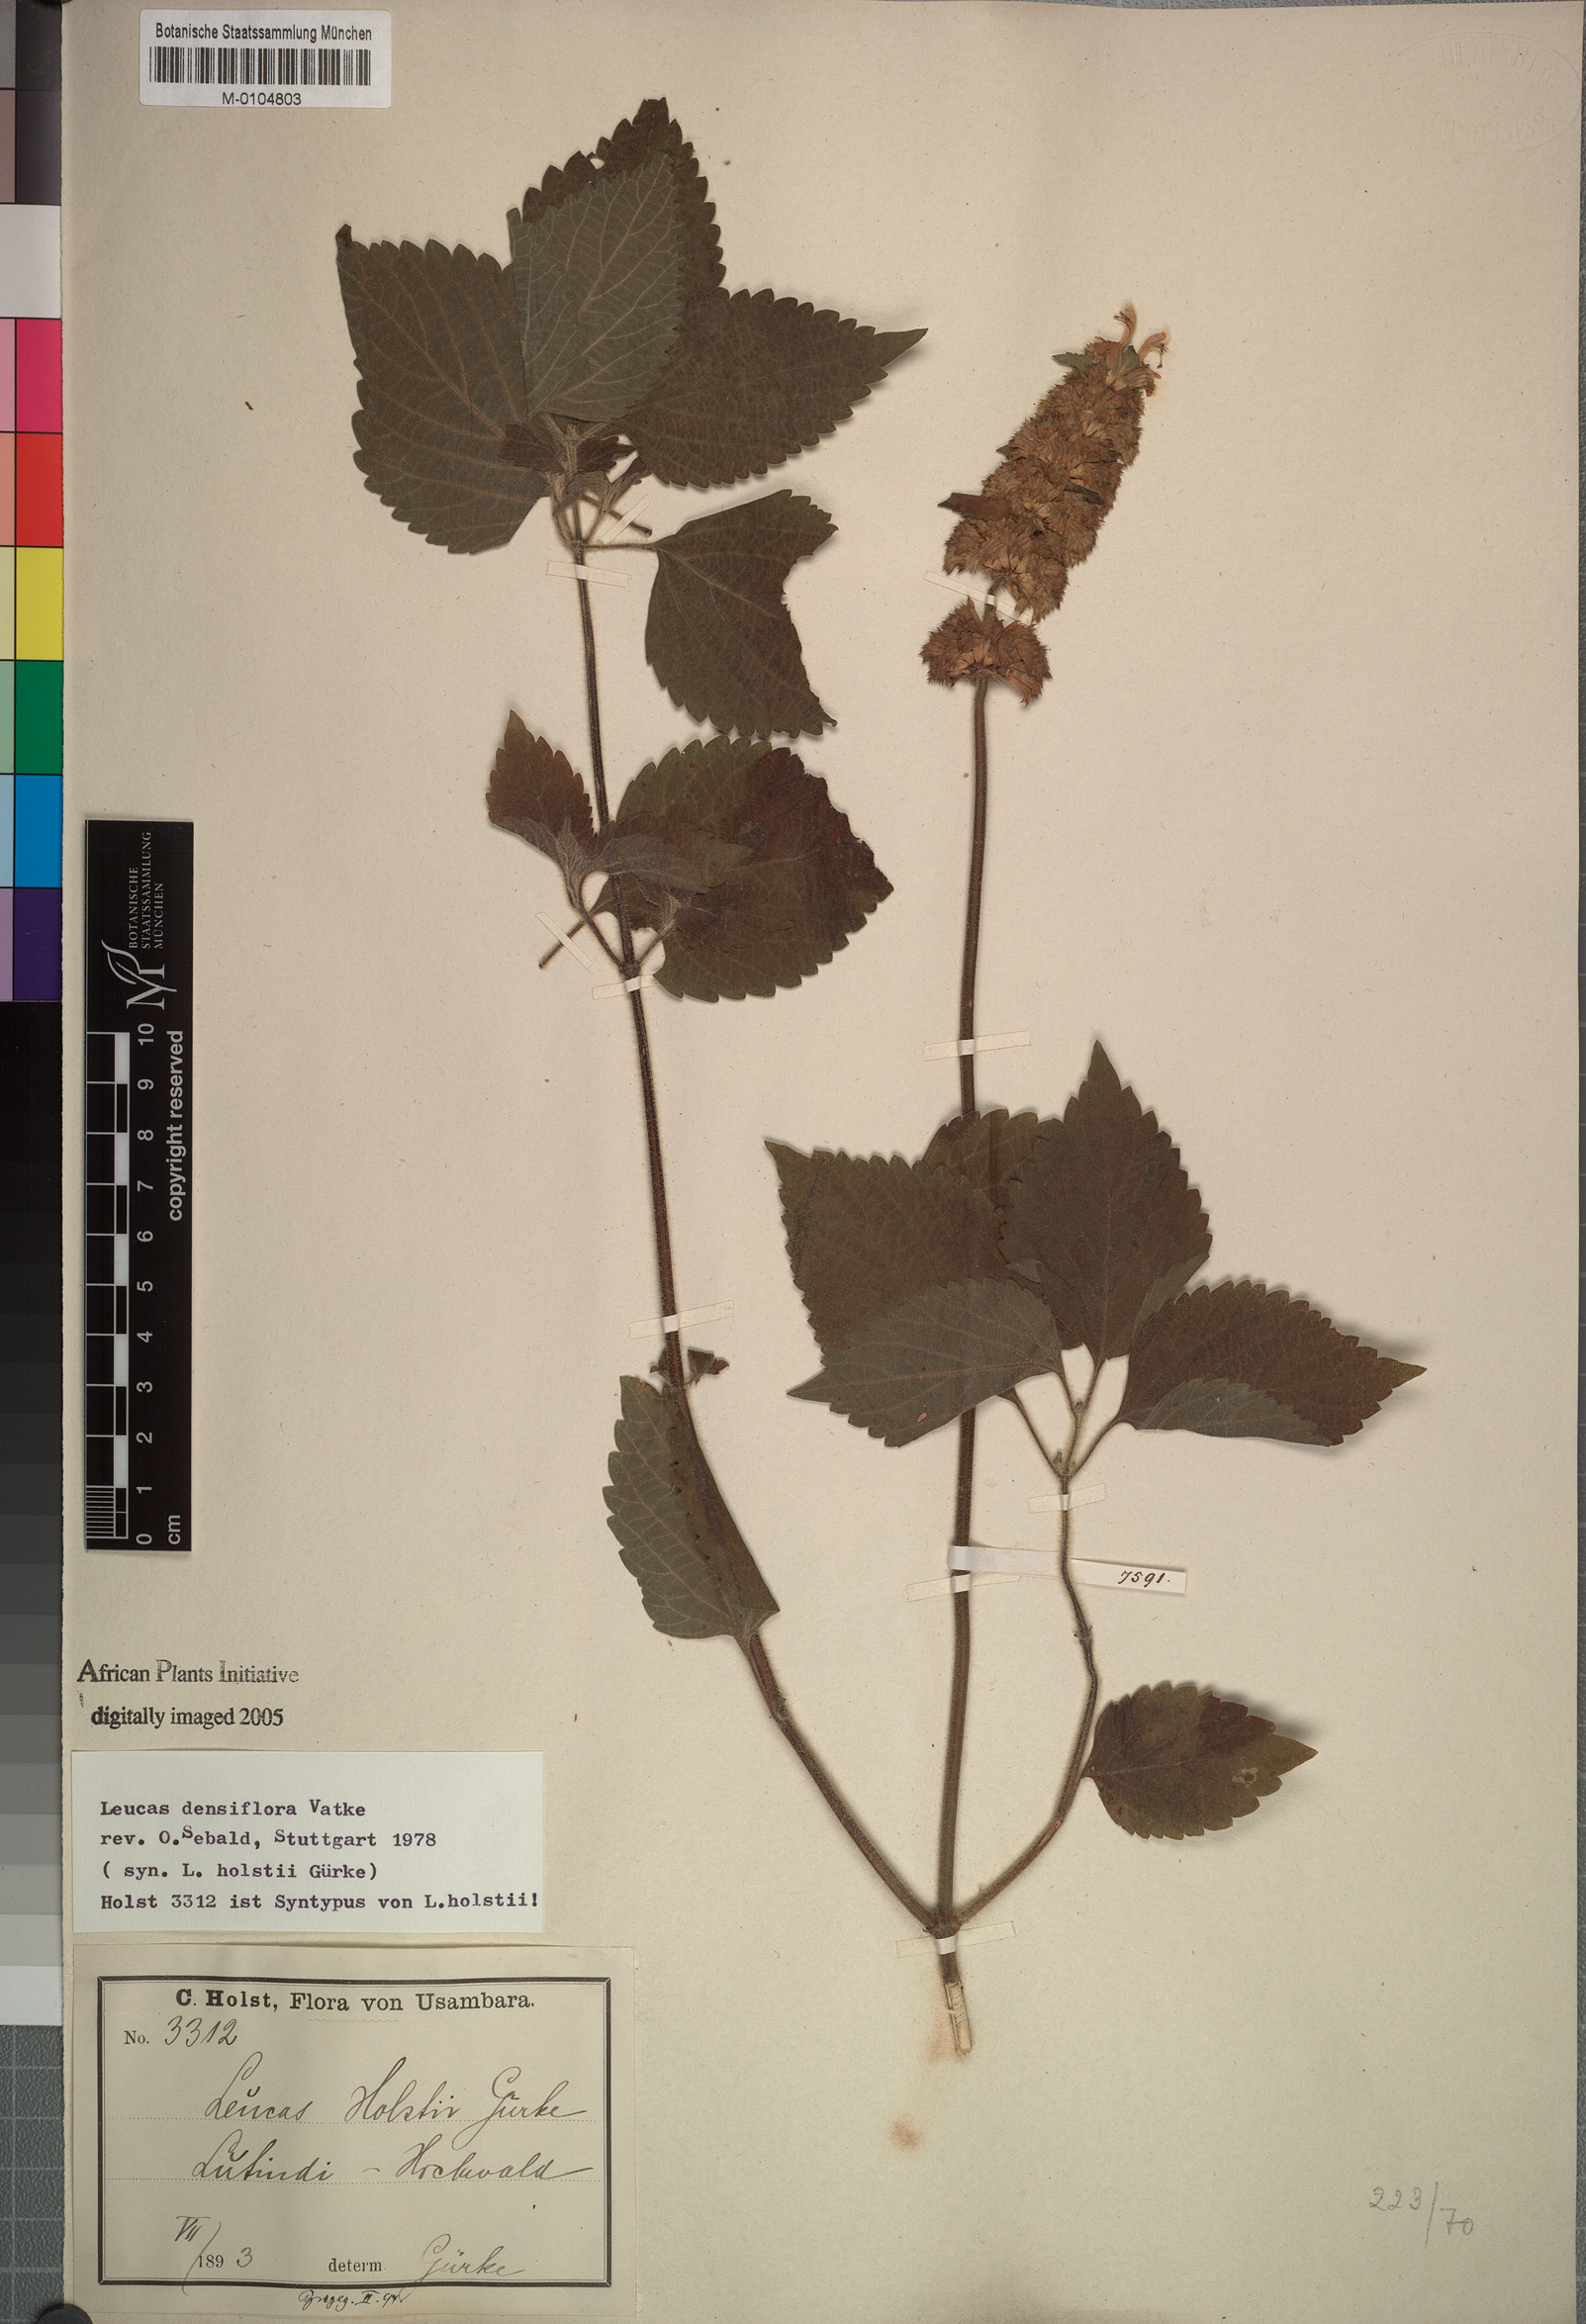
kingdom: Plantae
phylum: Tracheophyta
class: Magnoliopsida
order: Lamiales
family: Lamiaceae
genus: Leucas
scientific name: Leucas densiflora
